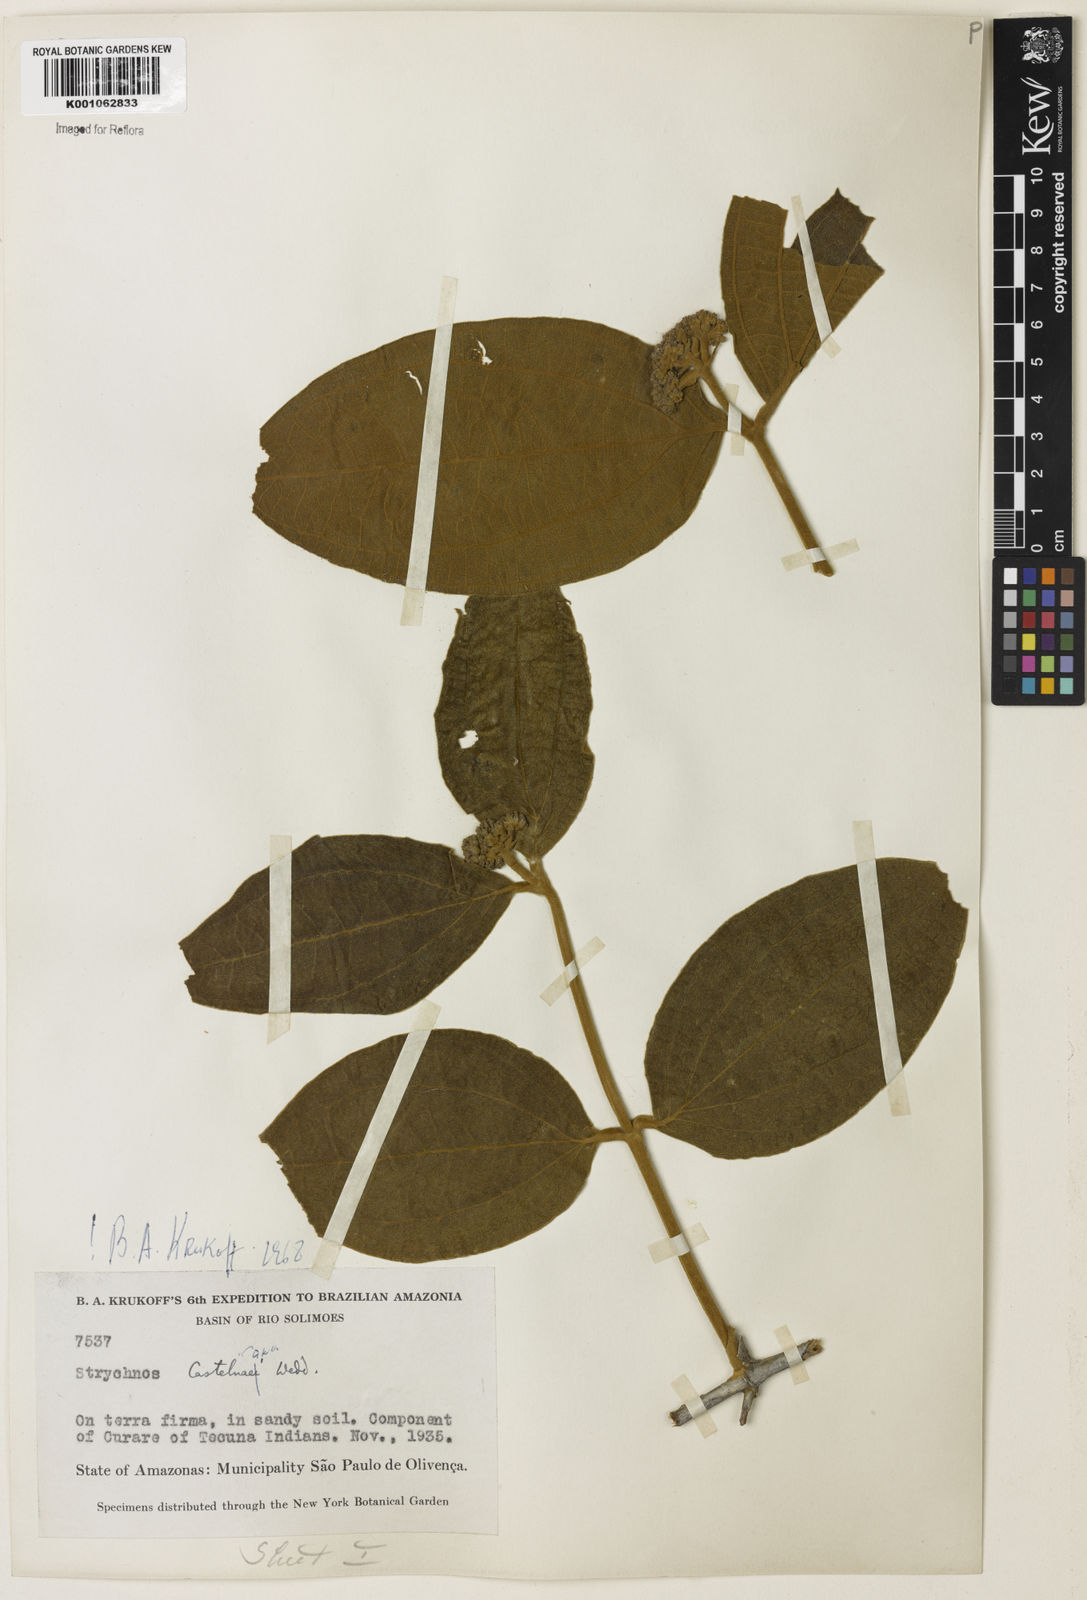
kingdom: Plantae
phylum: Tracheophyta
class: Magnoliopsida
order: Gentianales
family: Loganiaceae
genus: Strychnos
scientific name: Strychnos
